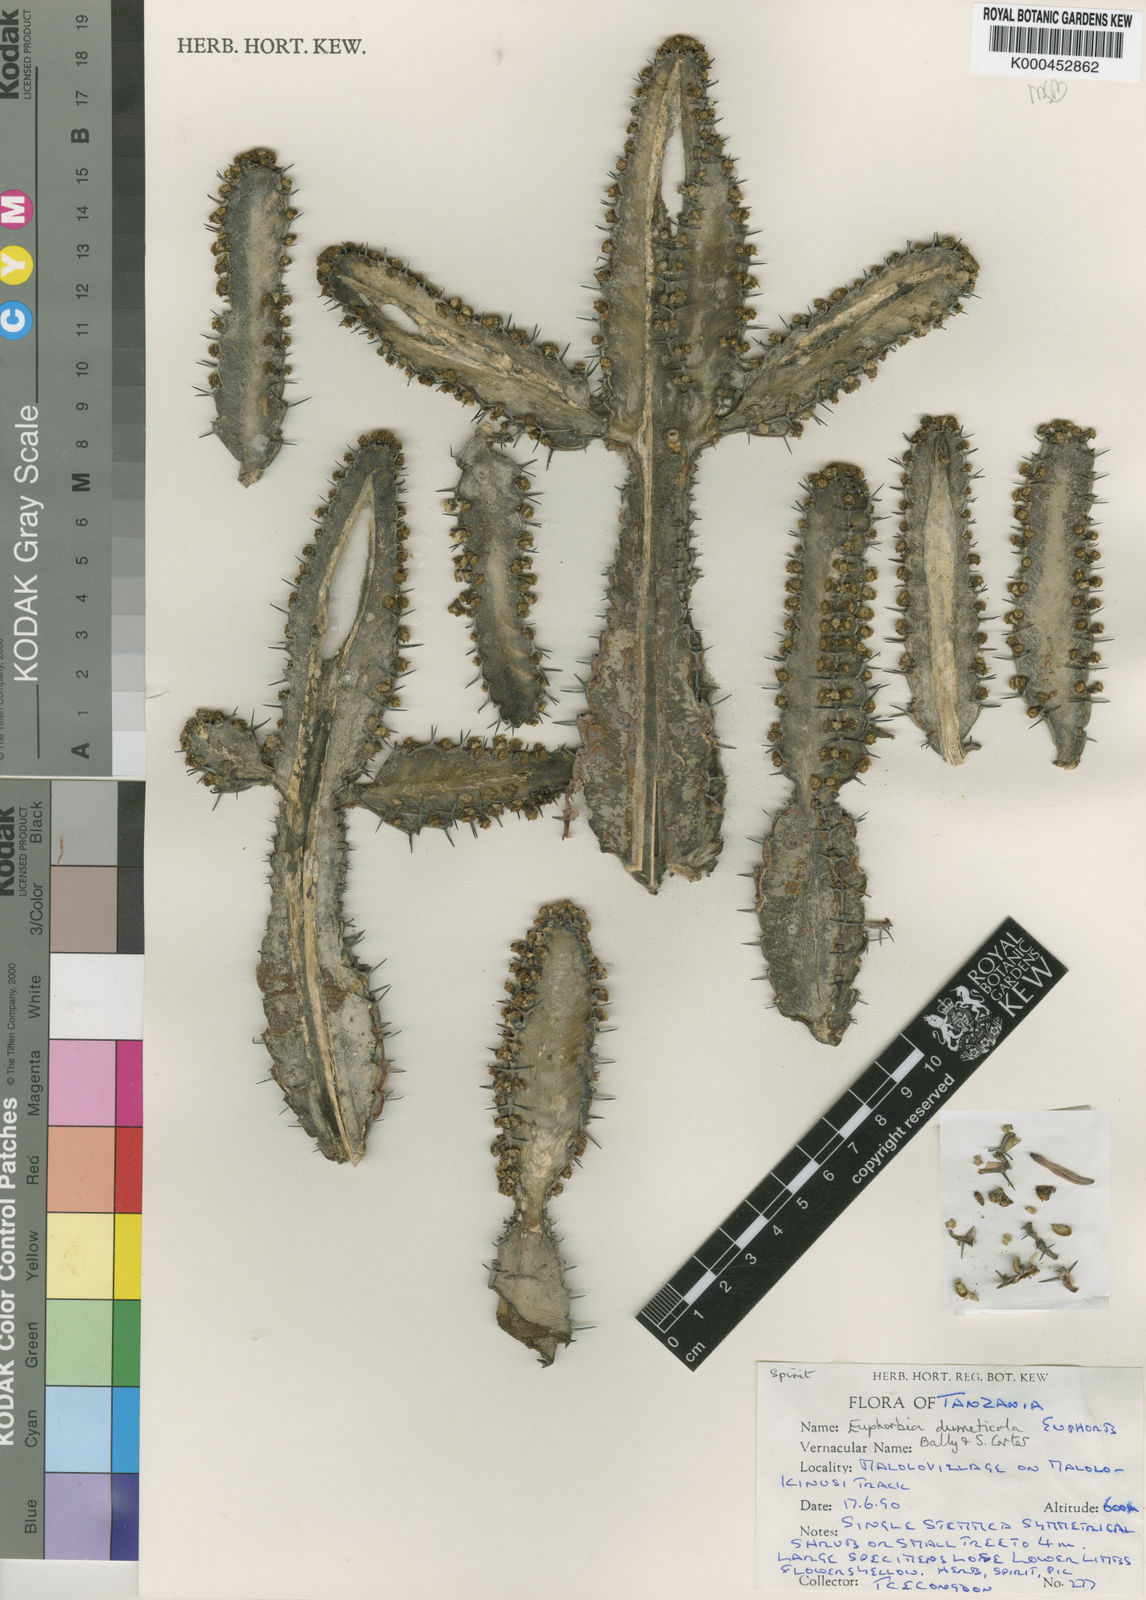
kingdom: Plantae
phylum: Tracheophyta
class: Magnoliopsida
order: Malpighiales
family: Euphorbiaceae
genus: Euphorbia
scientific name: Euphorbia dumeticola
